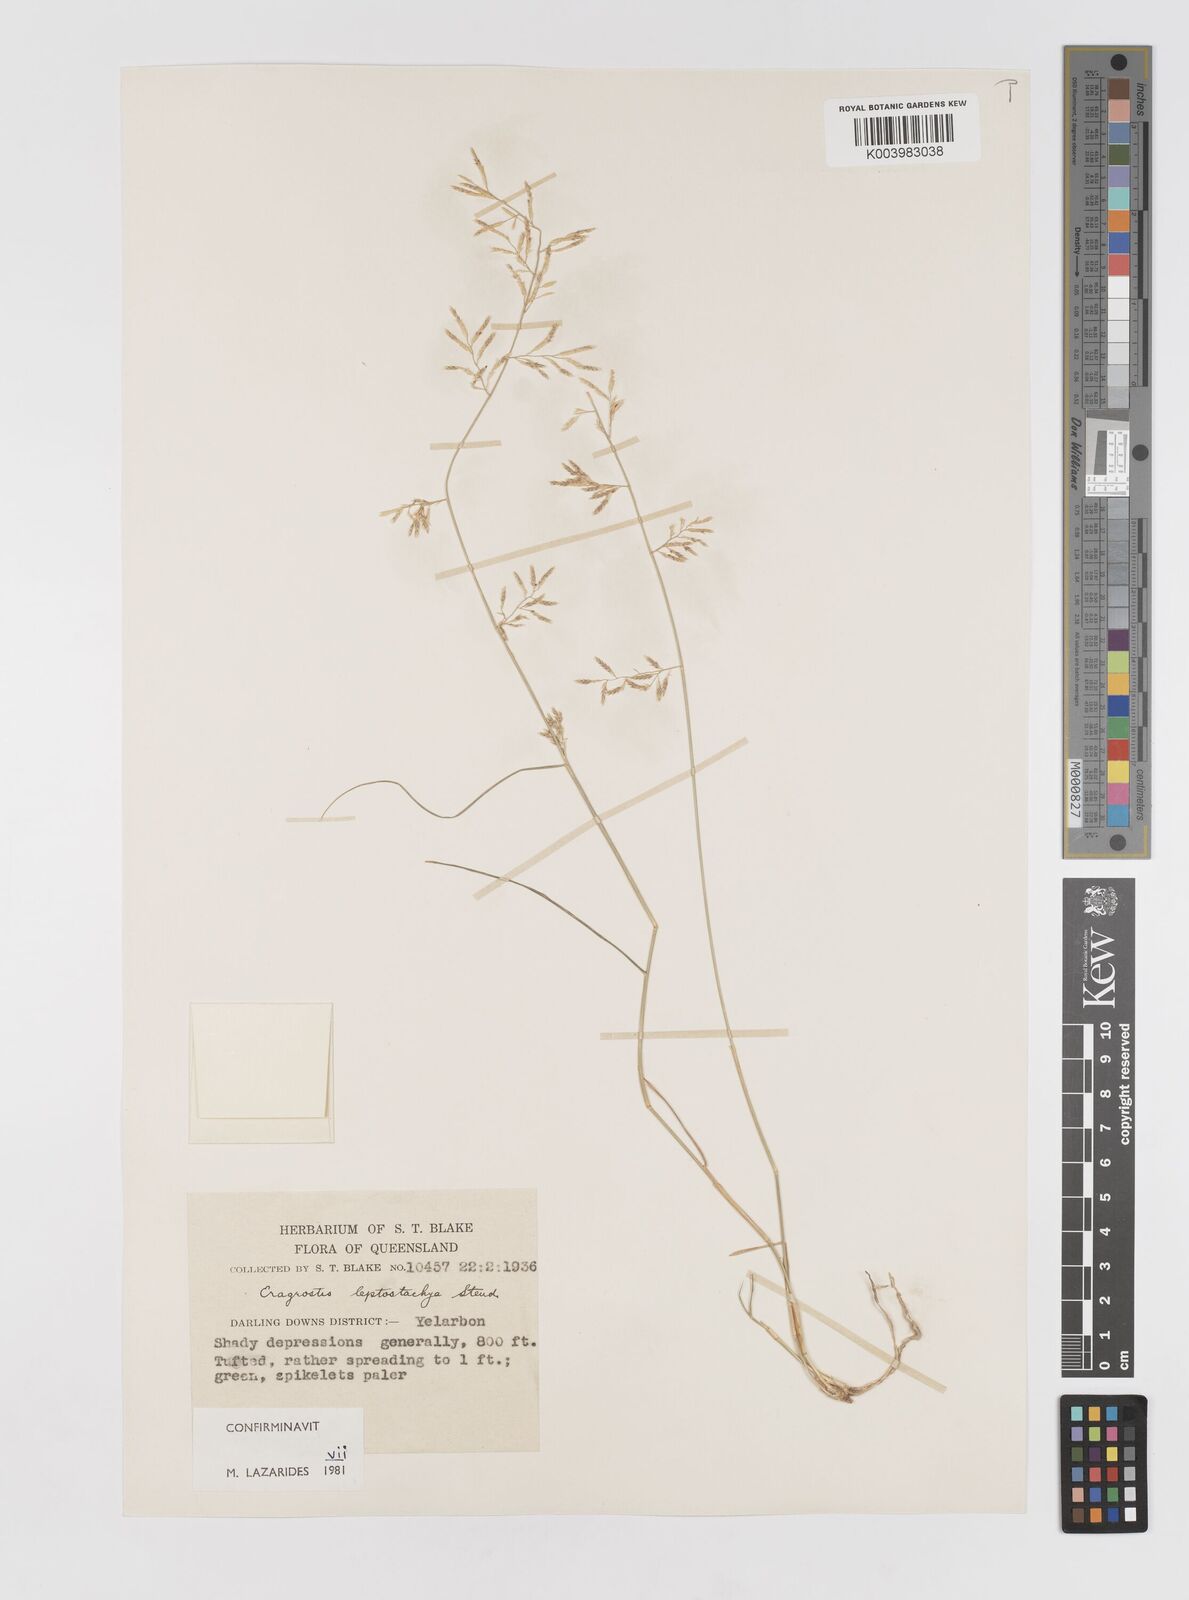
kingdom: Plantae
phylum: Tracheophyta
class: Liliopsida
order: Poales
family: Poaceae
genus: Eragrostis
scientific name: Eragrostis leptostachya
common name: Australian lovegrass
